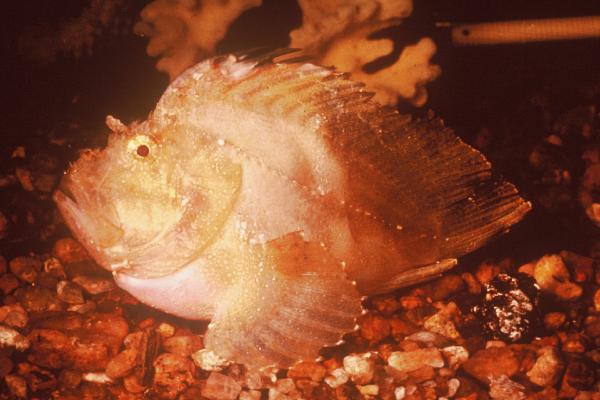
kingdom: Animalia
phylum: Chordata
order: Scorpaeniformes
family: Scorpaenidae
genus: Taenianotus
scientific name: Taenianotus triacanthus
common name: Leaf scorpionfish
